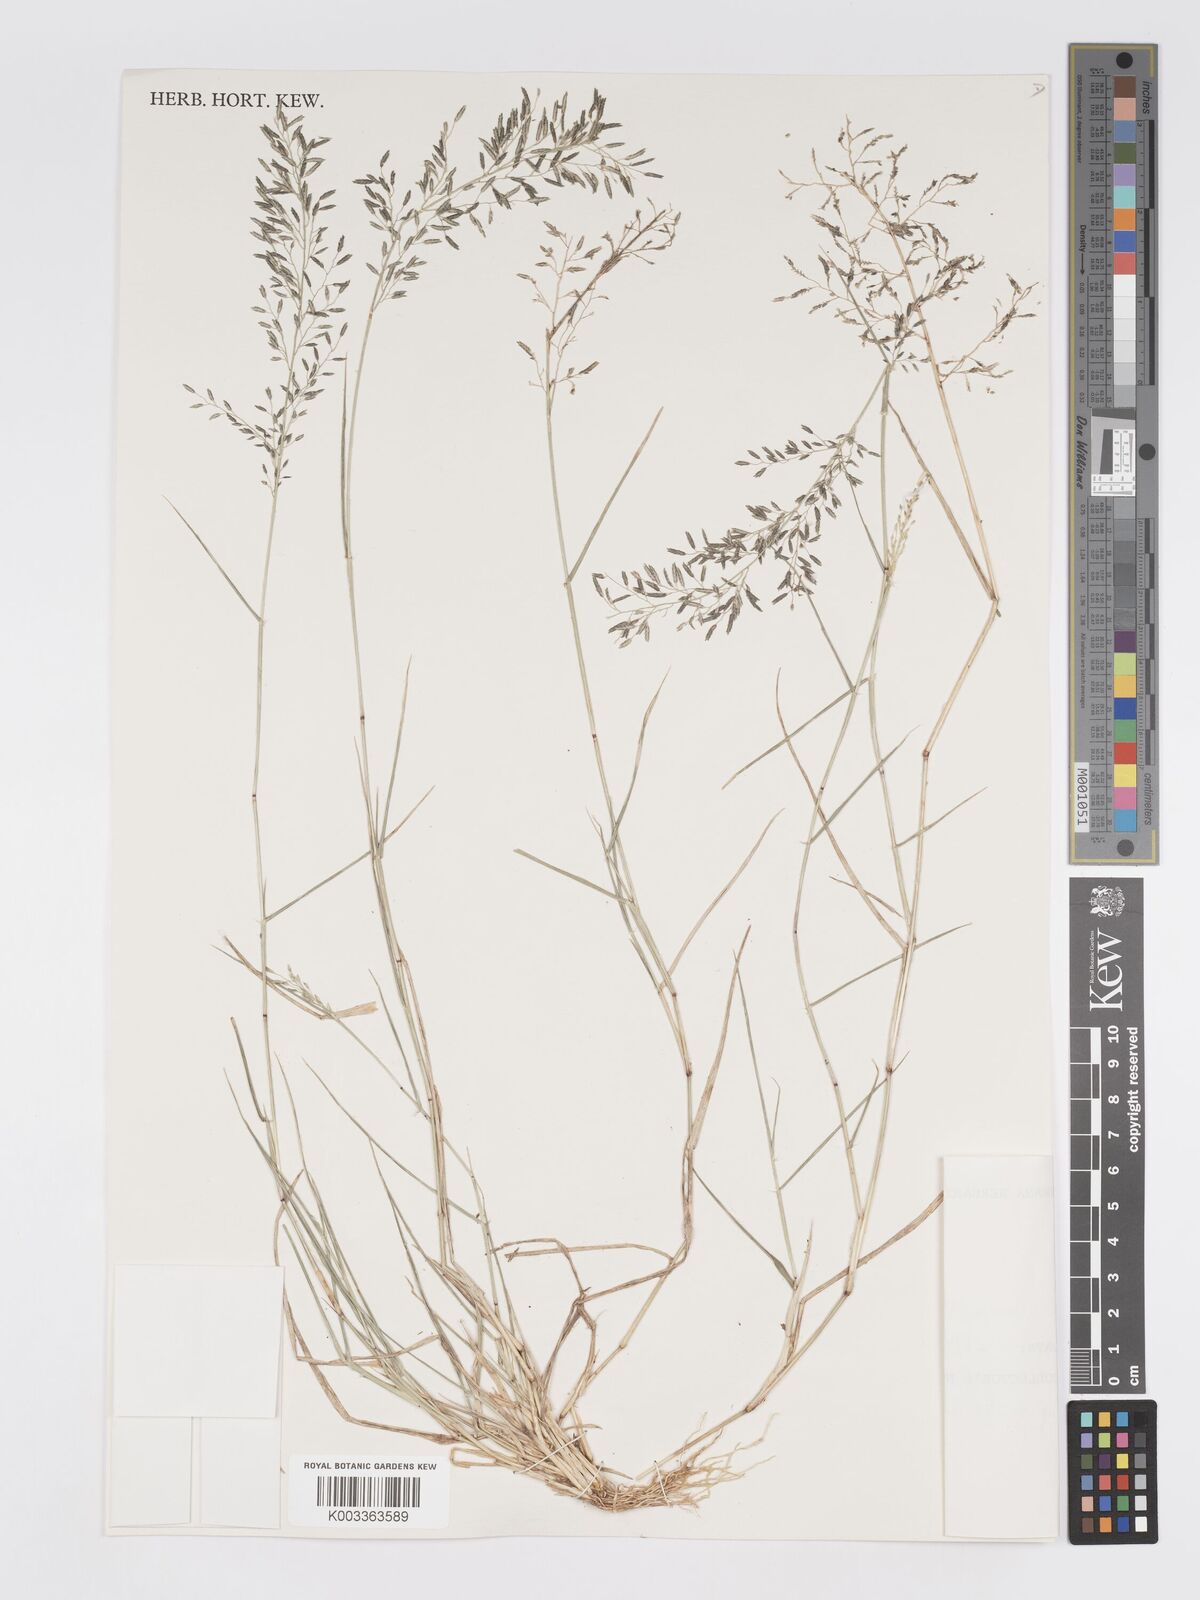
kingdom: Plantae
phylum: Tracheophyta
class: Liliopsida
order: Poales
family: Poaceae
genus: Eragrostis
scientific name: Eragrostis barrelieri
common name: Mediterranean lovegrass
